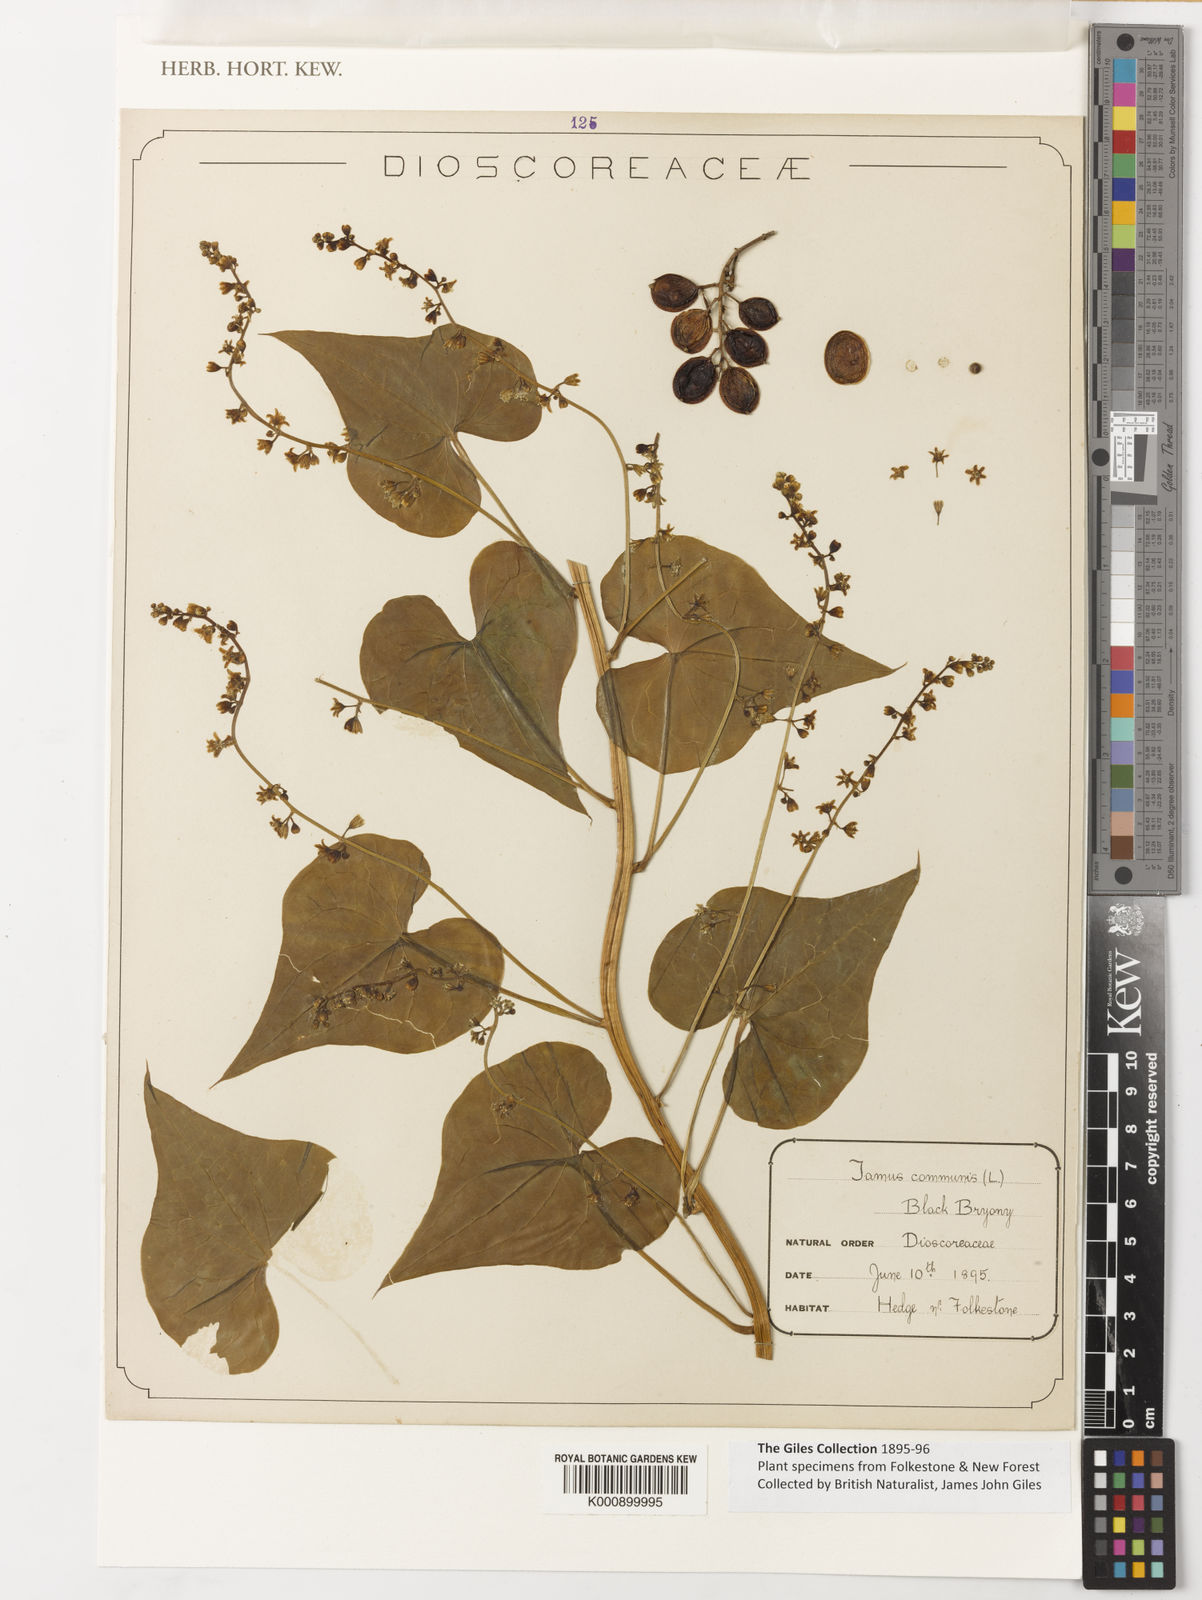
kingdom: Plantae
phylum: Tracheophyta
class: Liliopsida
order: Dioscoreales
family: Dioscoreaceae
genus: Dioscorea
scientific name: Dioscorea communis
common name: Black-bindweed
